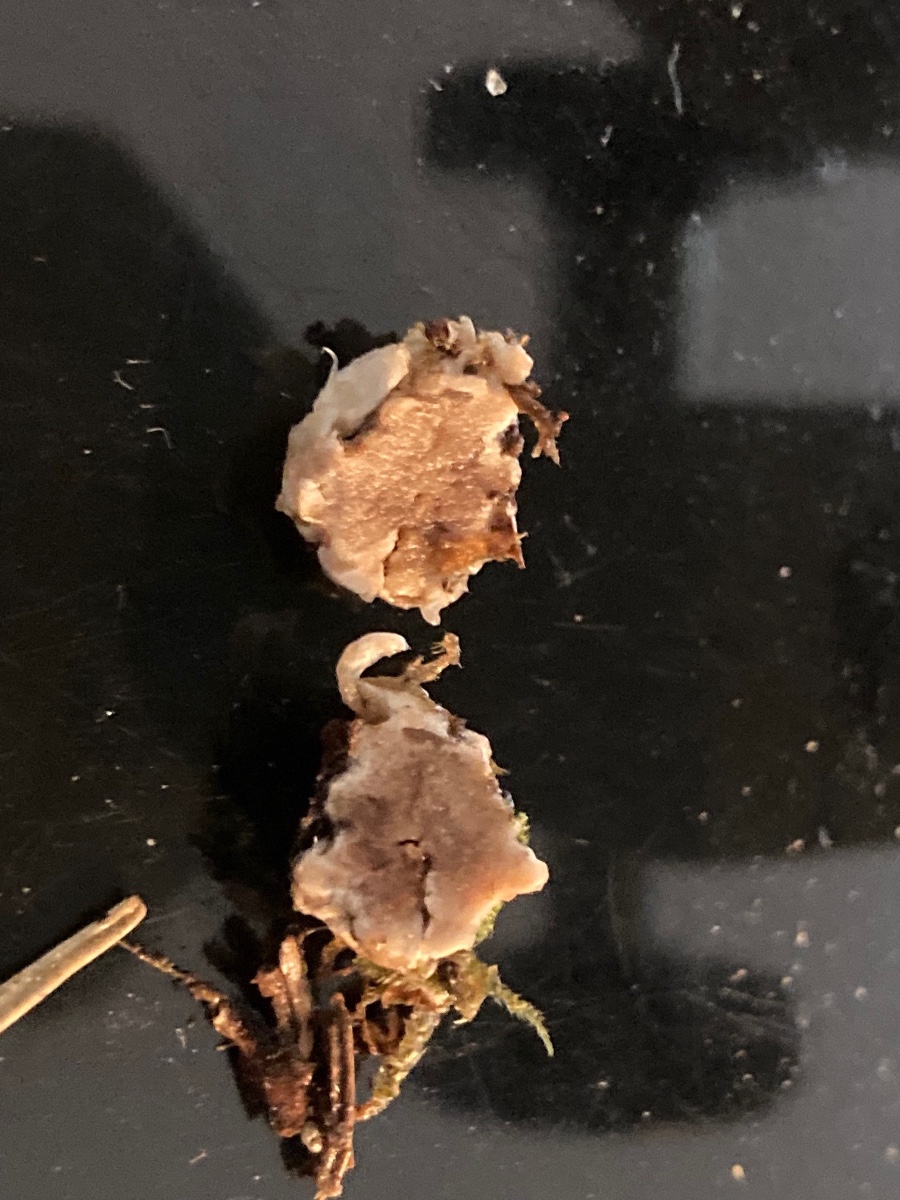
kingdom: Fungi
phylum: Basidiomycota
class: Agaricomycetes
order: Agaricales
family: Tricholomataceae
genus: Ripartites
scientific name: Ripartites
